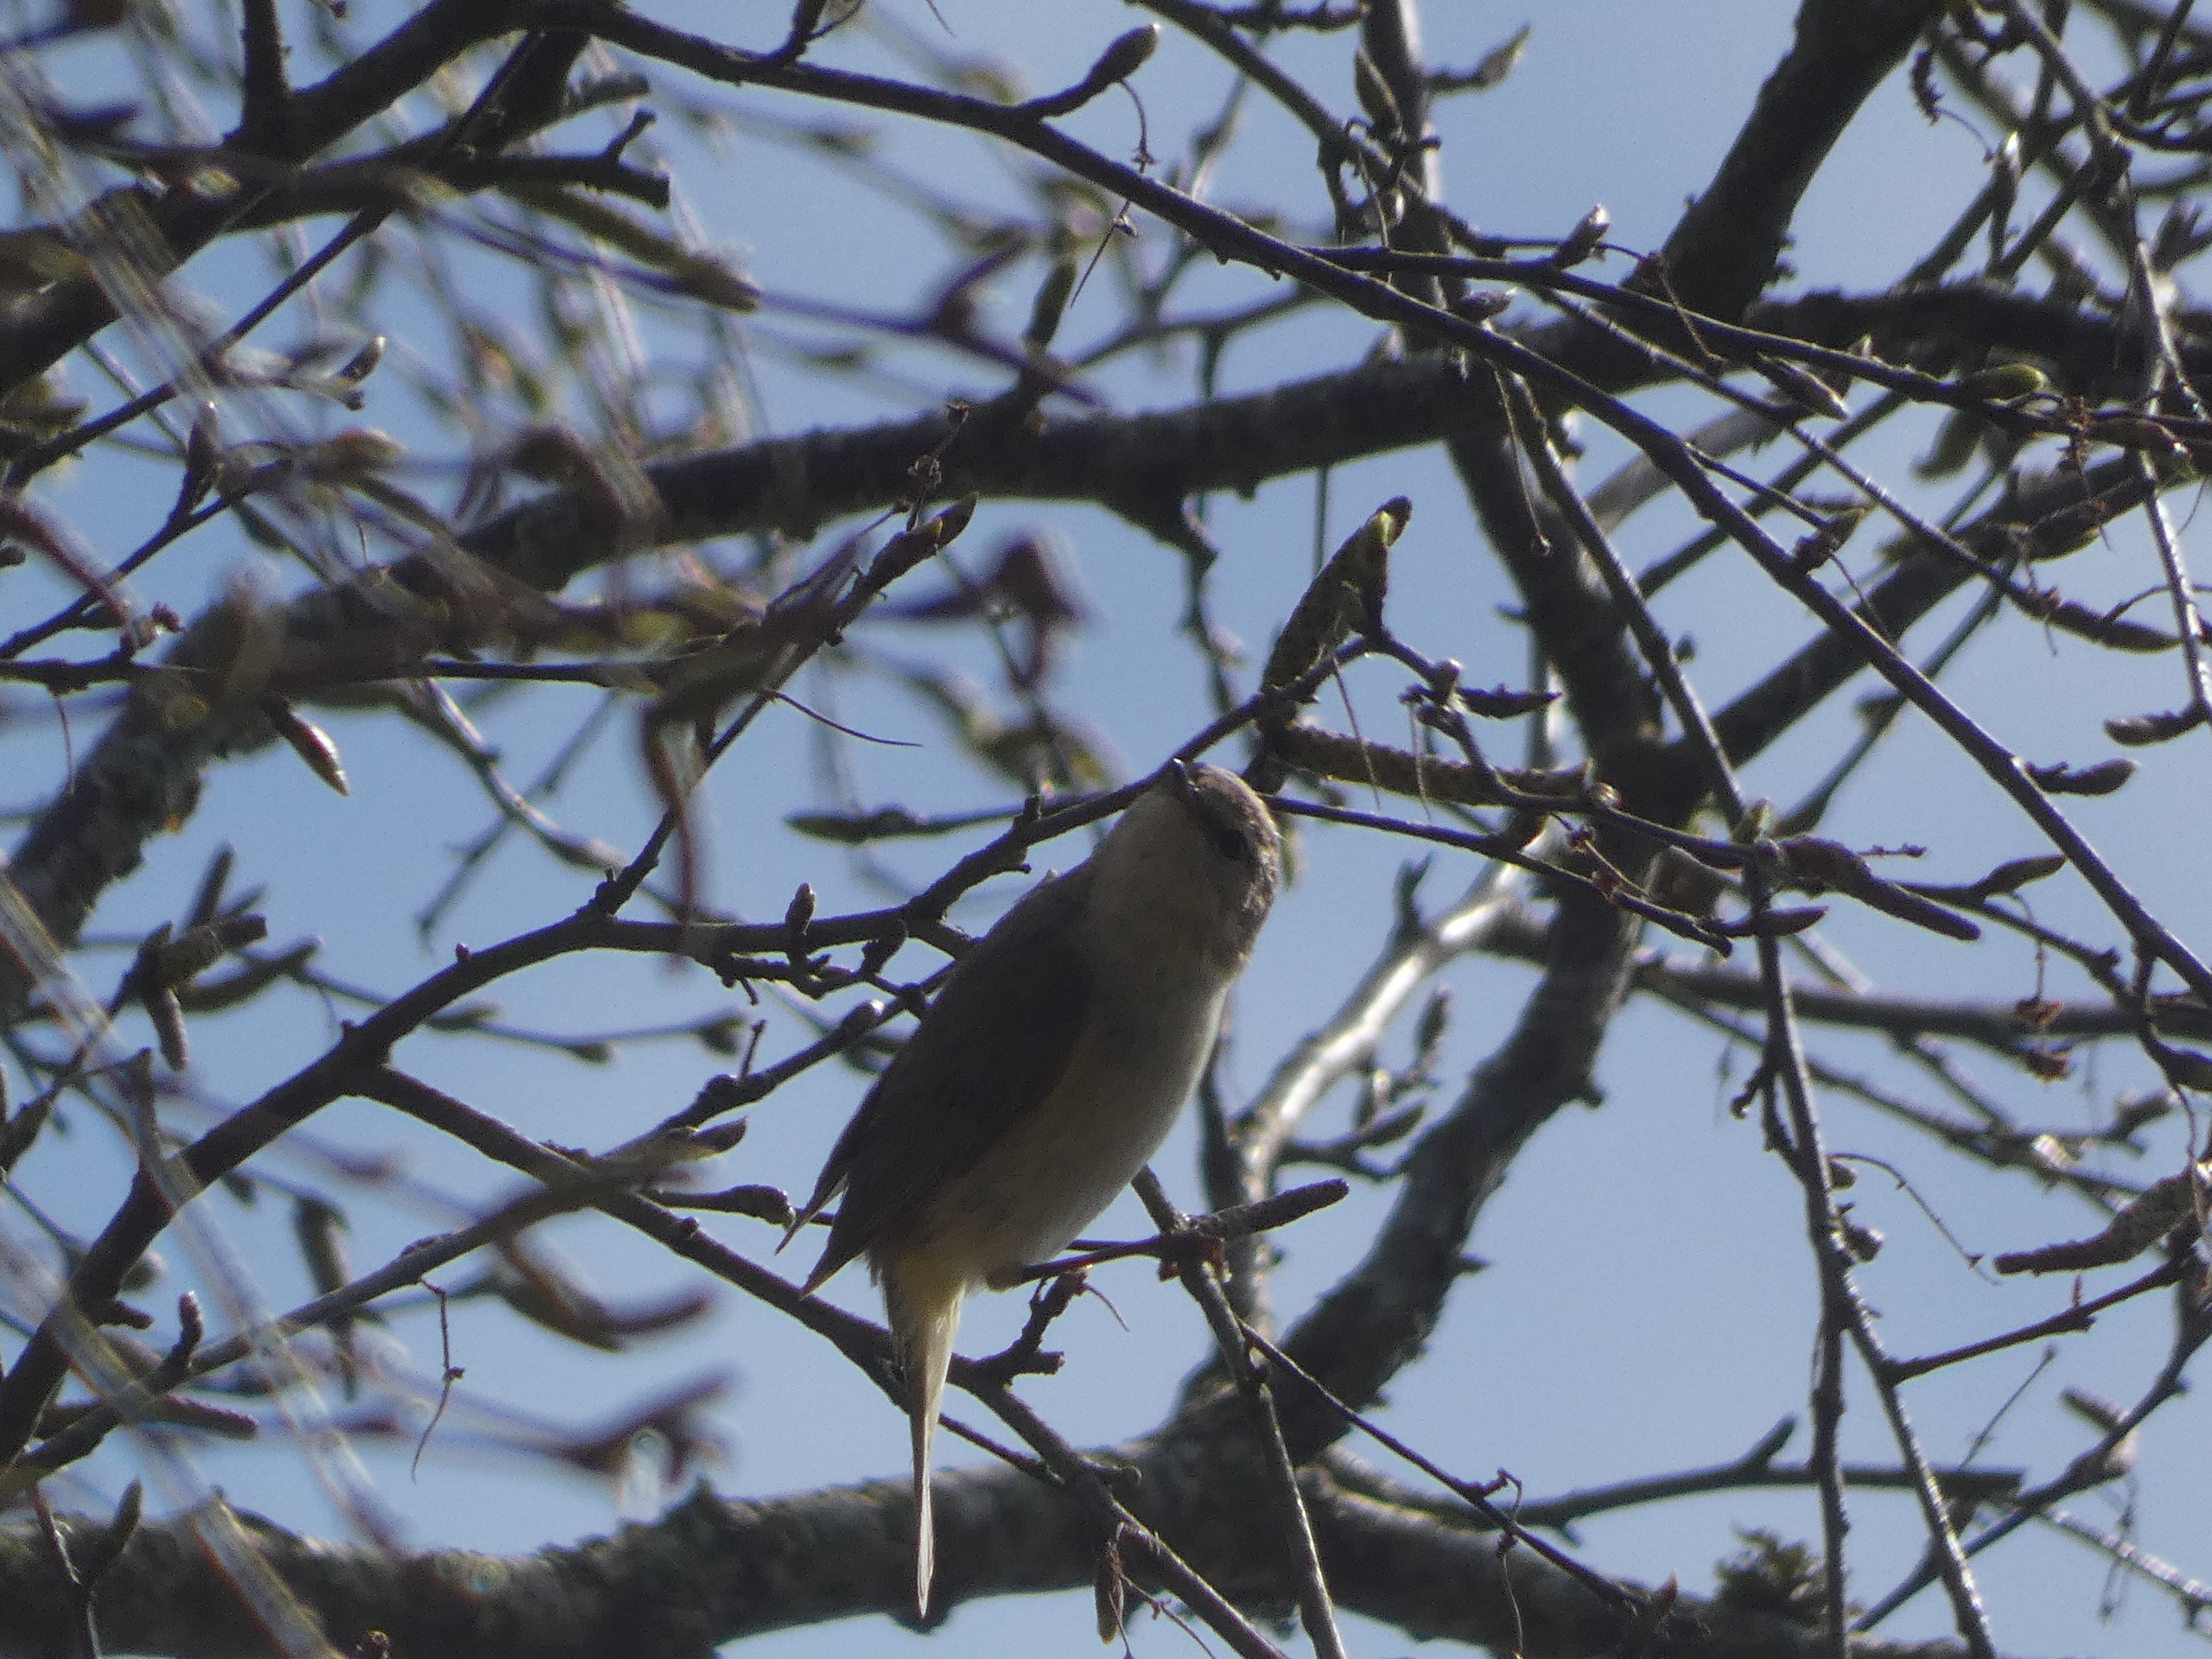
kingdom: Animalia
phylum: Chordata
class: Aves
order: Passeriformes
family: Phylloscopidae
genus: Phylloscopus
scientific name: Phylloscopus collybita
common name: Gransanger
